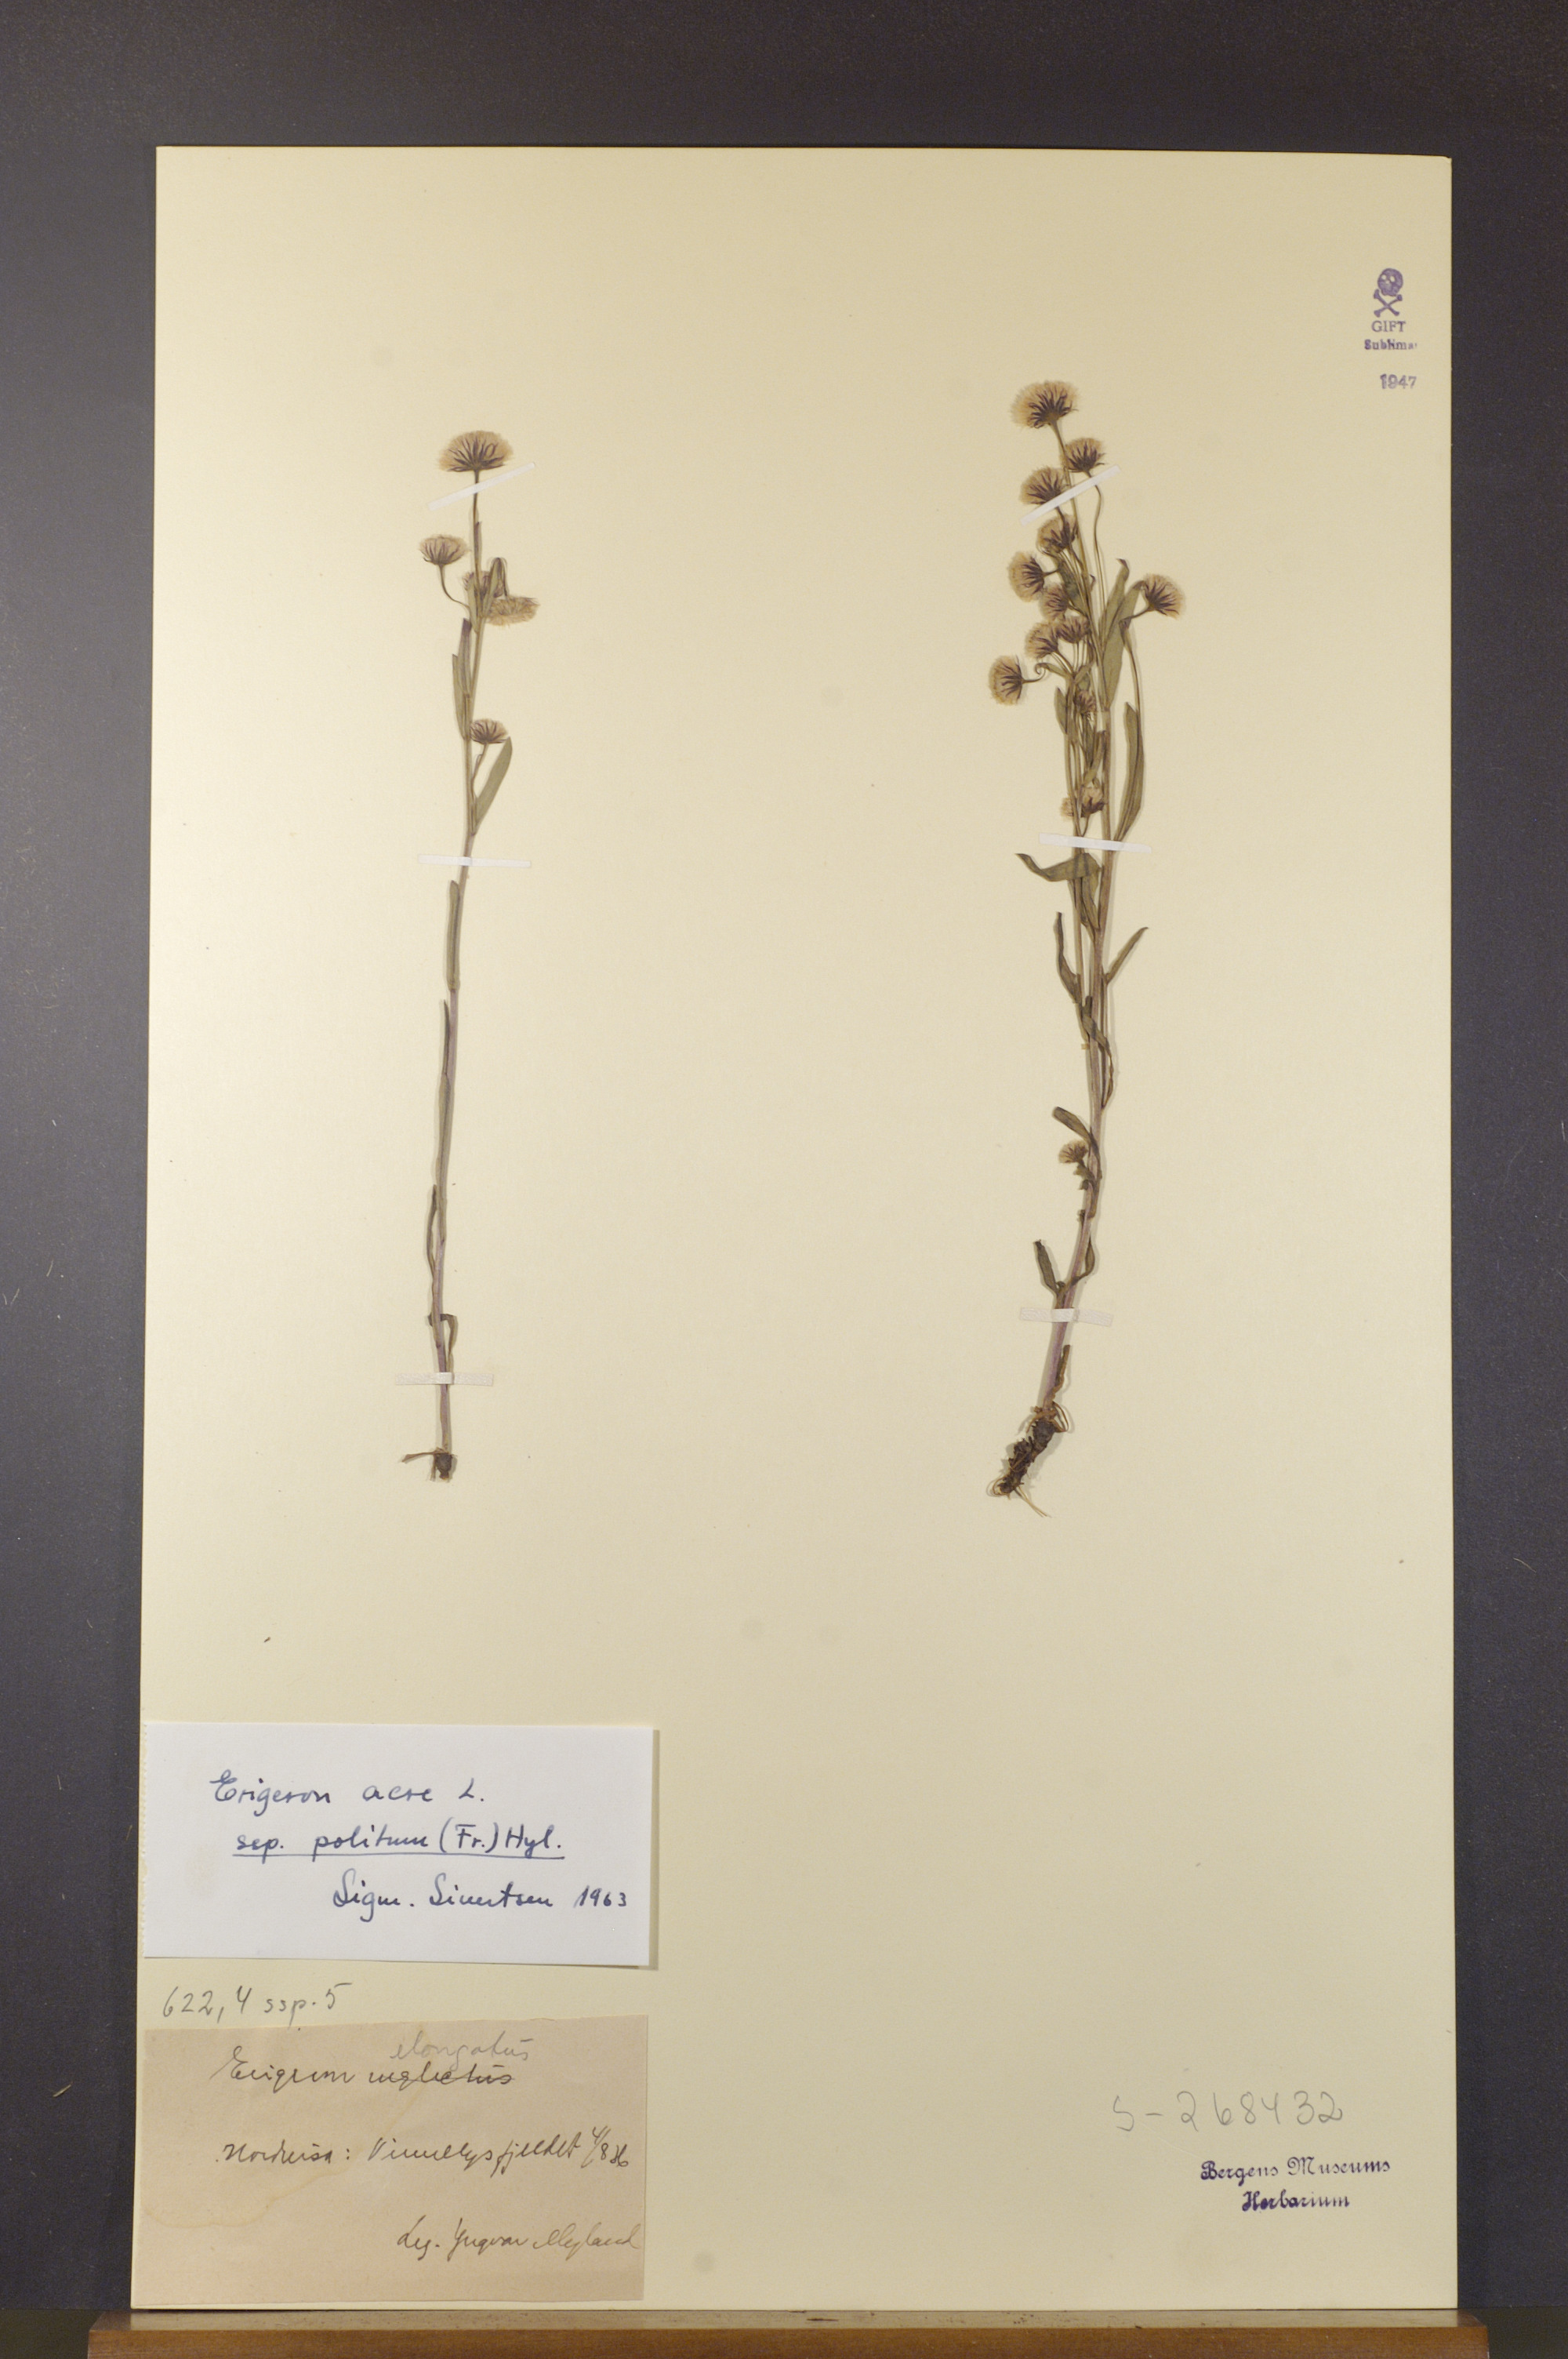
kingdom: Plantae
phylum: Tracheophyta
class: Magnoliopsida
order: Asterales
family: Asteraceae
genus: Erigeron
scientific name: Erigeron politus
